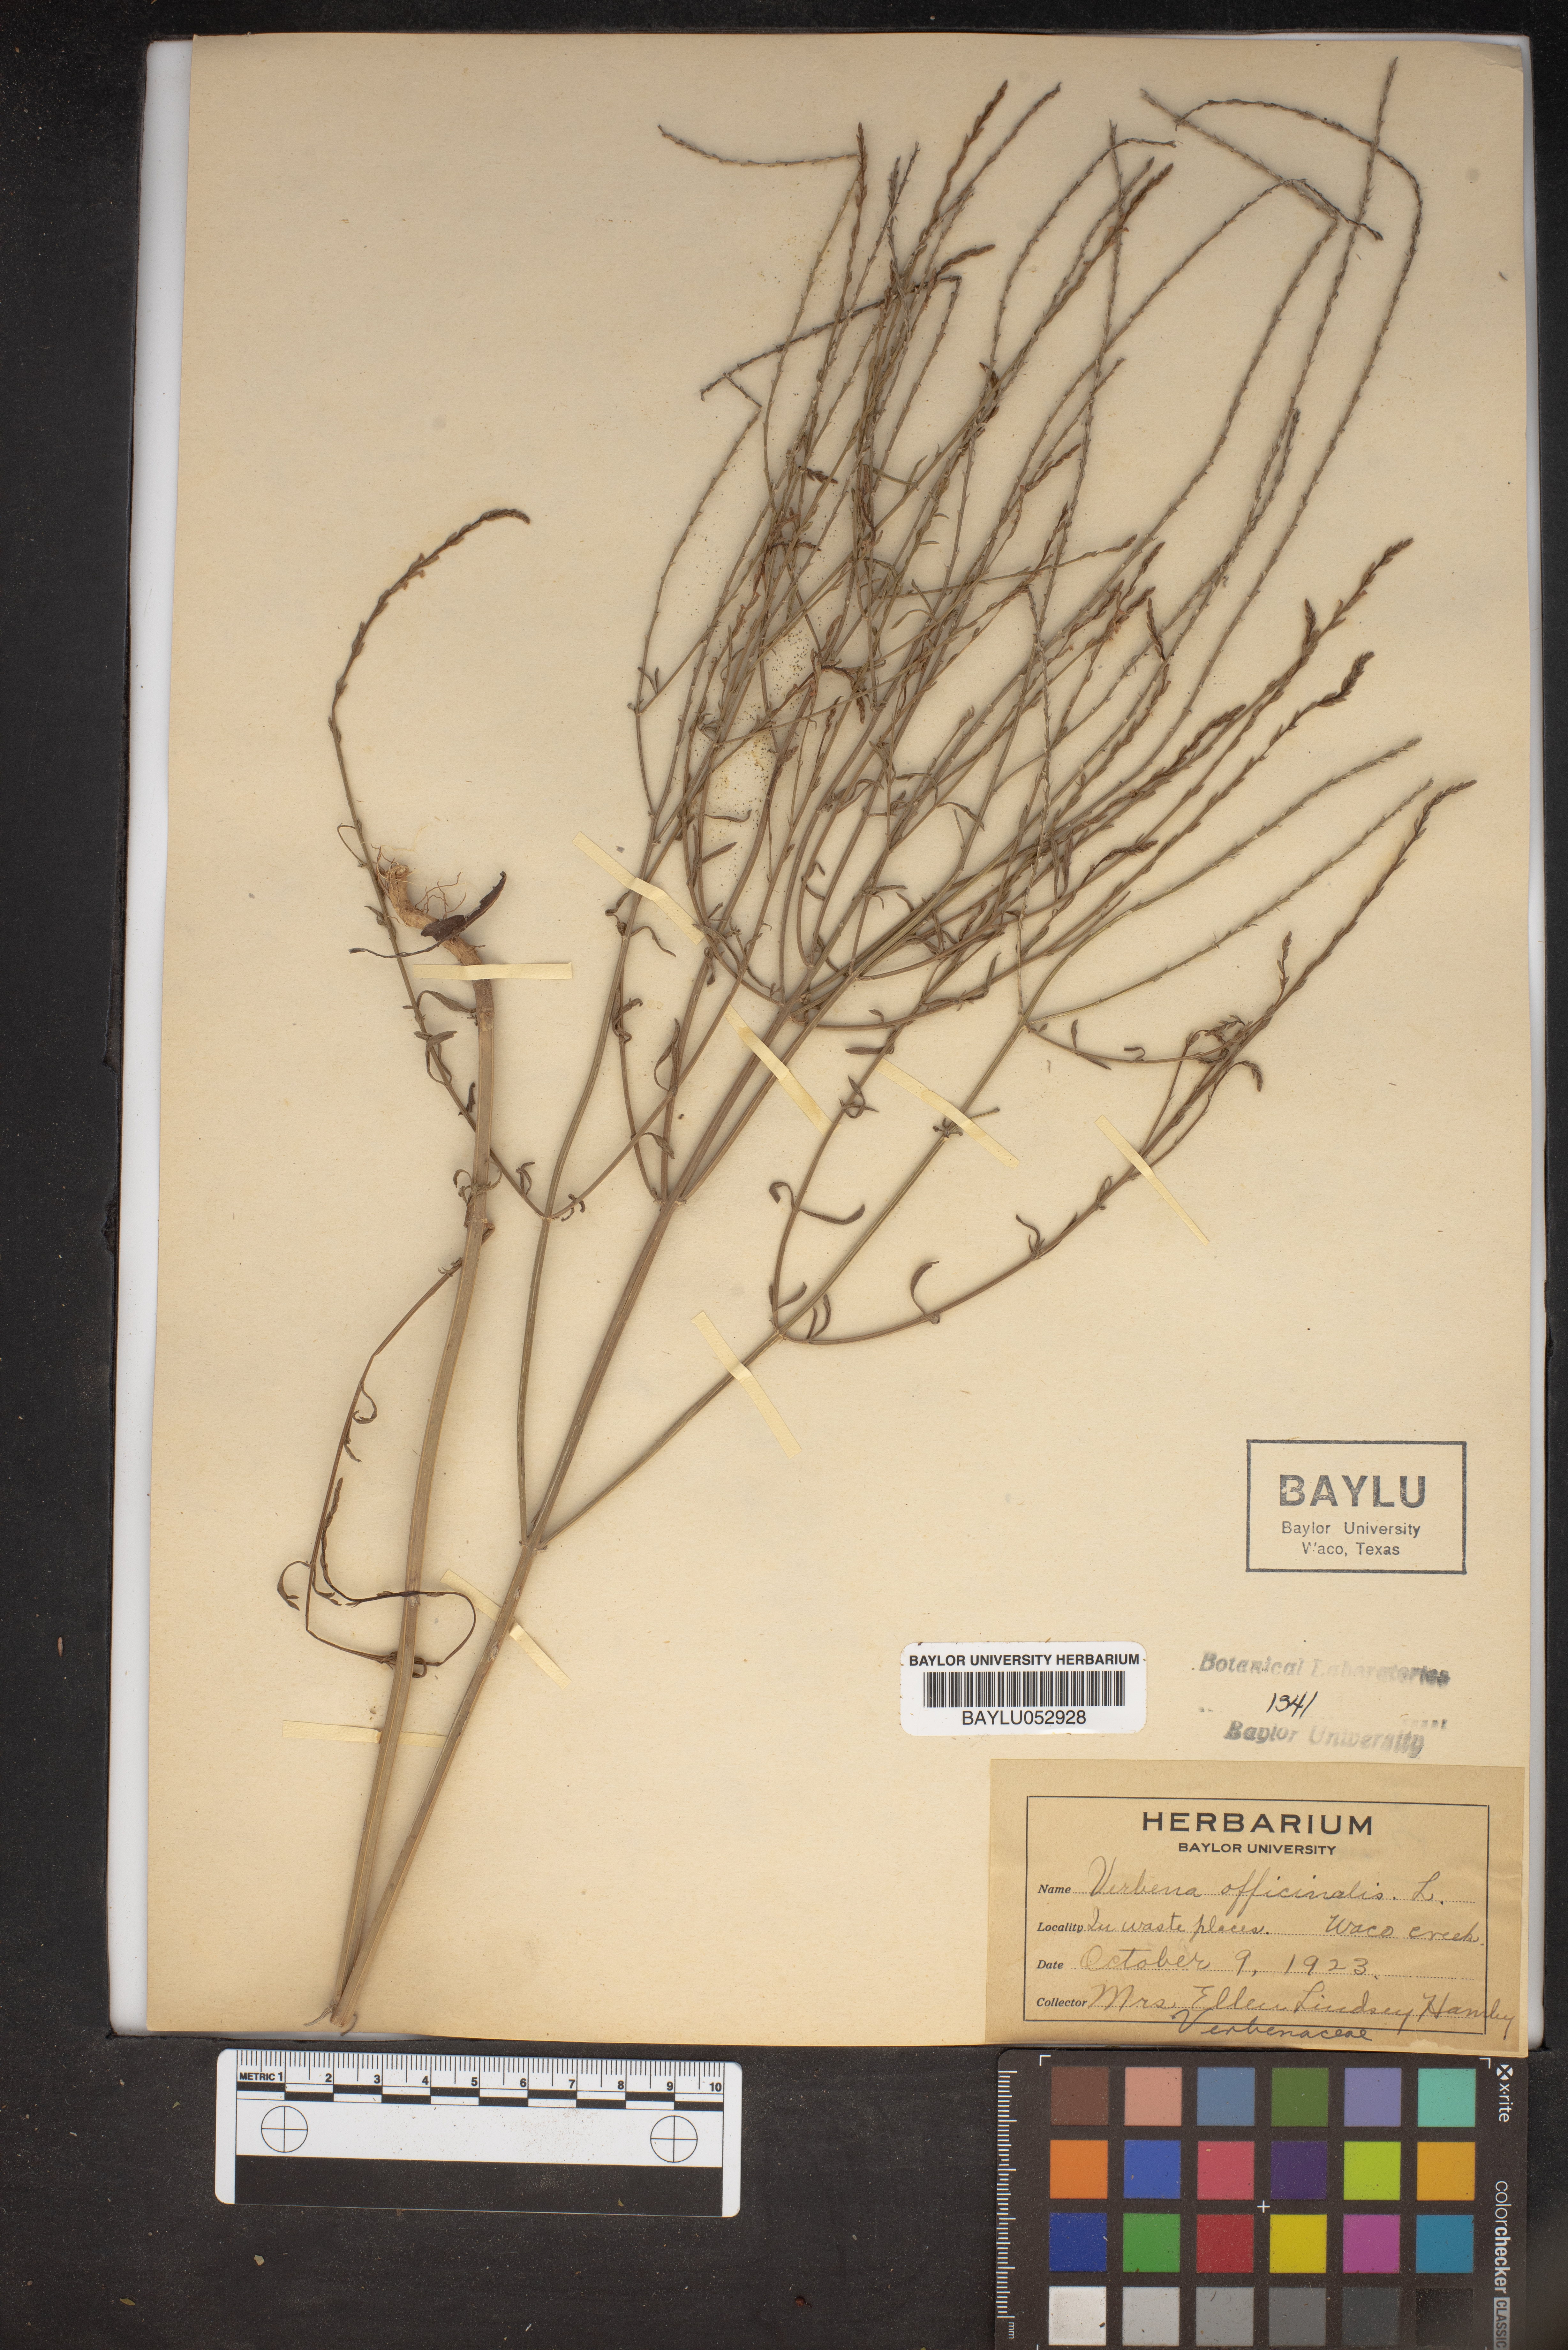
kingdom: Plantae
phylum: Tracheophyta
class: Magnoliopsida
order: Lamiales
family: Verbenaceae
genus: Verbena
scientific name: Verbena officinalis
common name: Vervain
